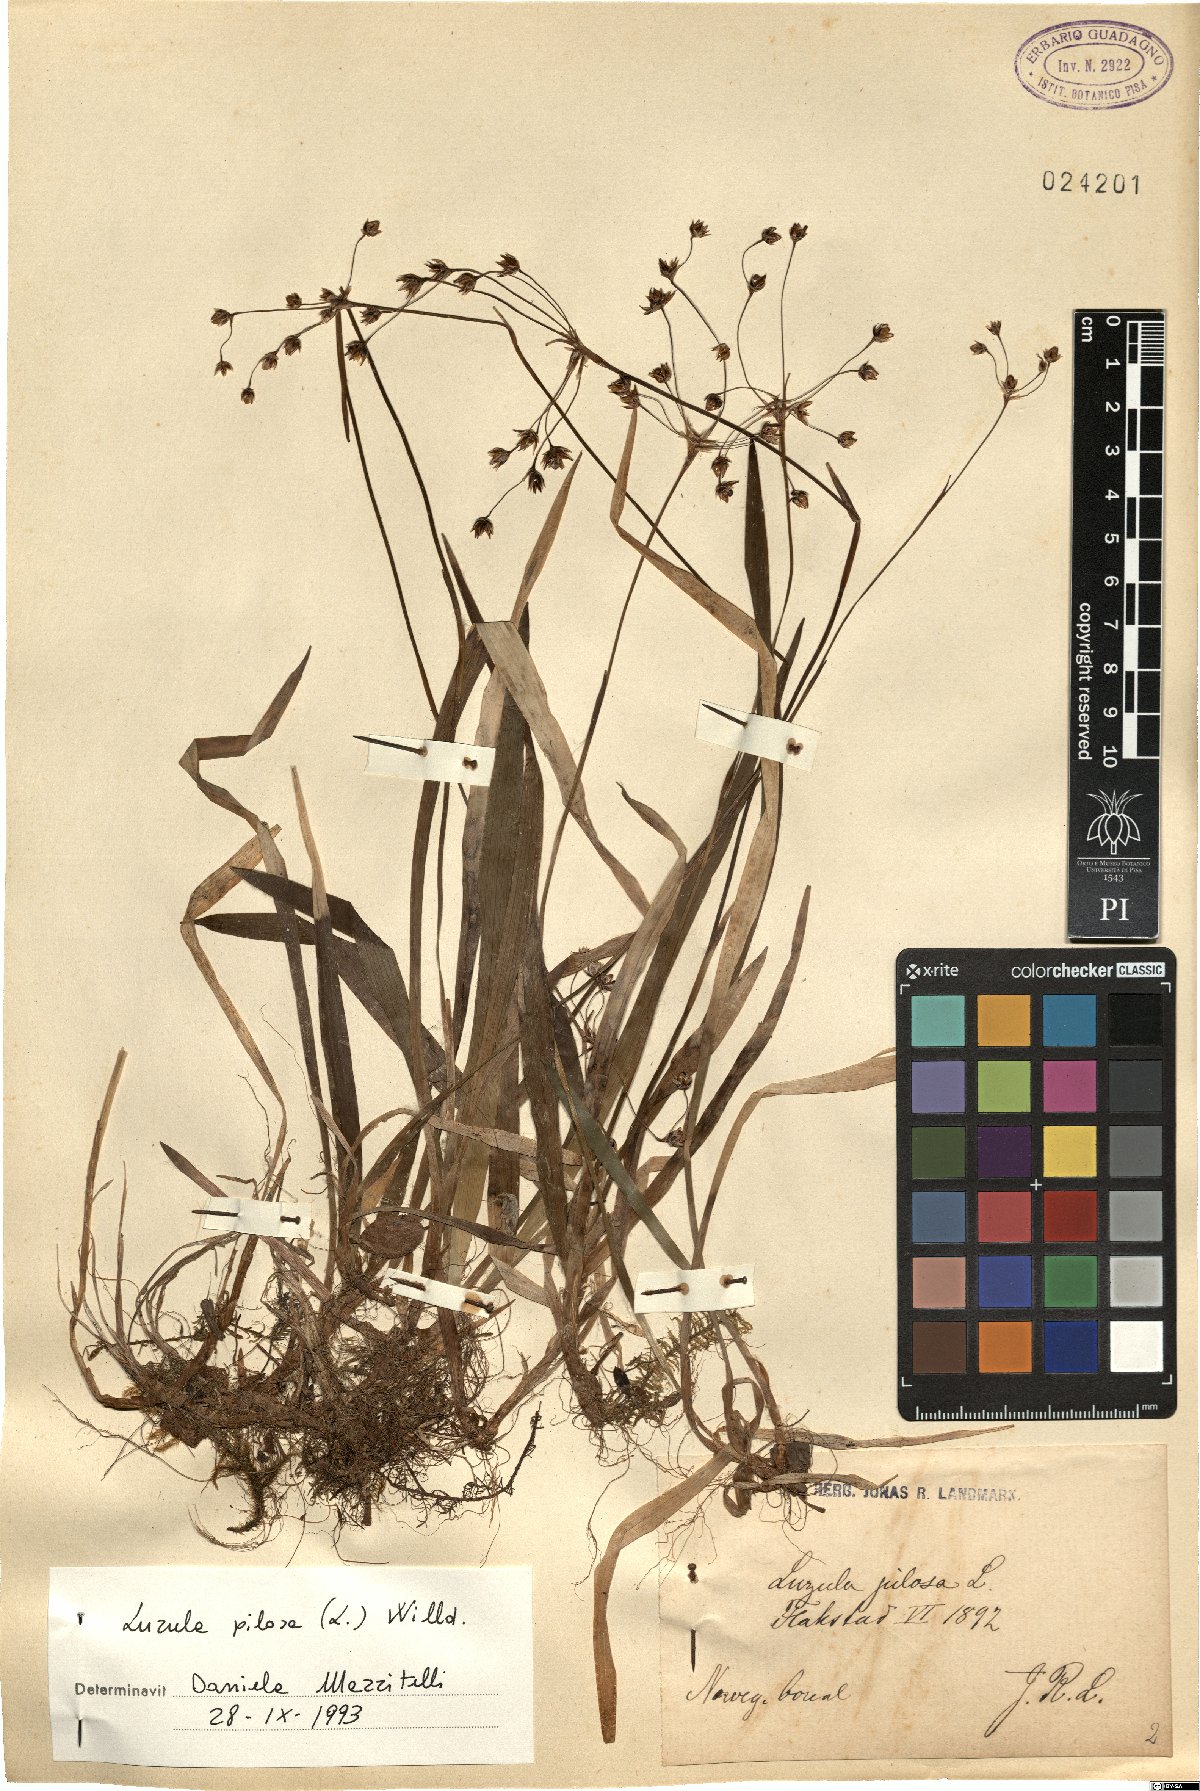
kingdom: Plantae
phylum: Tracheophyta
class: Liliopsida
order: Poales
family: Juncaceae
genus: Luzula
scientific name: Luzula pilosa
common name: Hairy wood-rush
